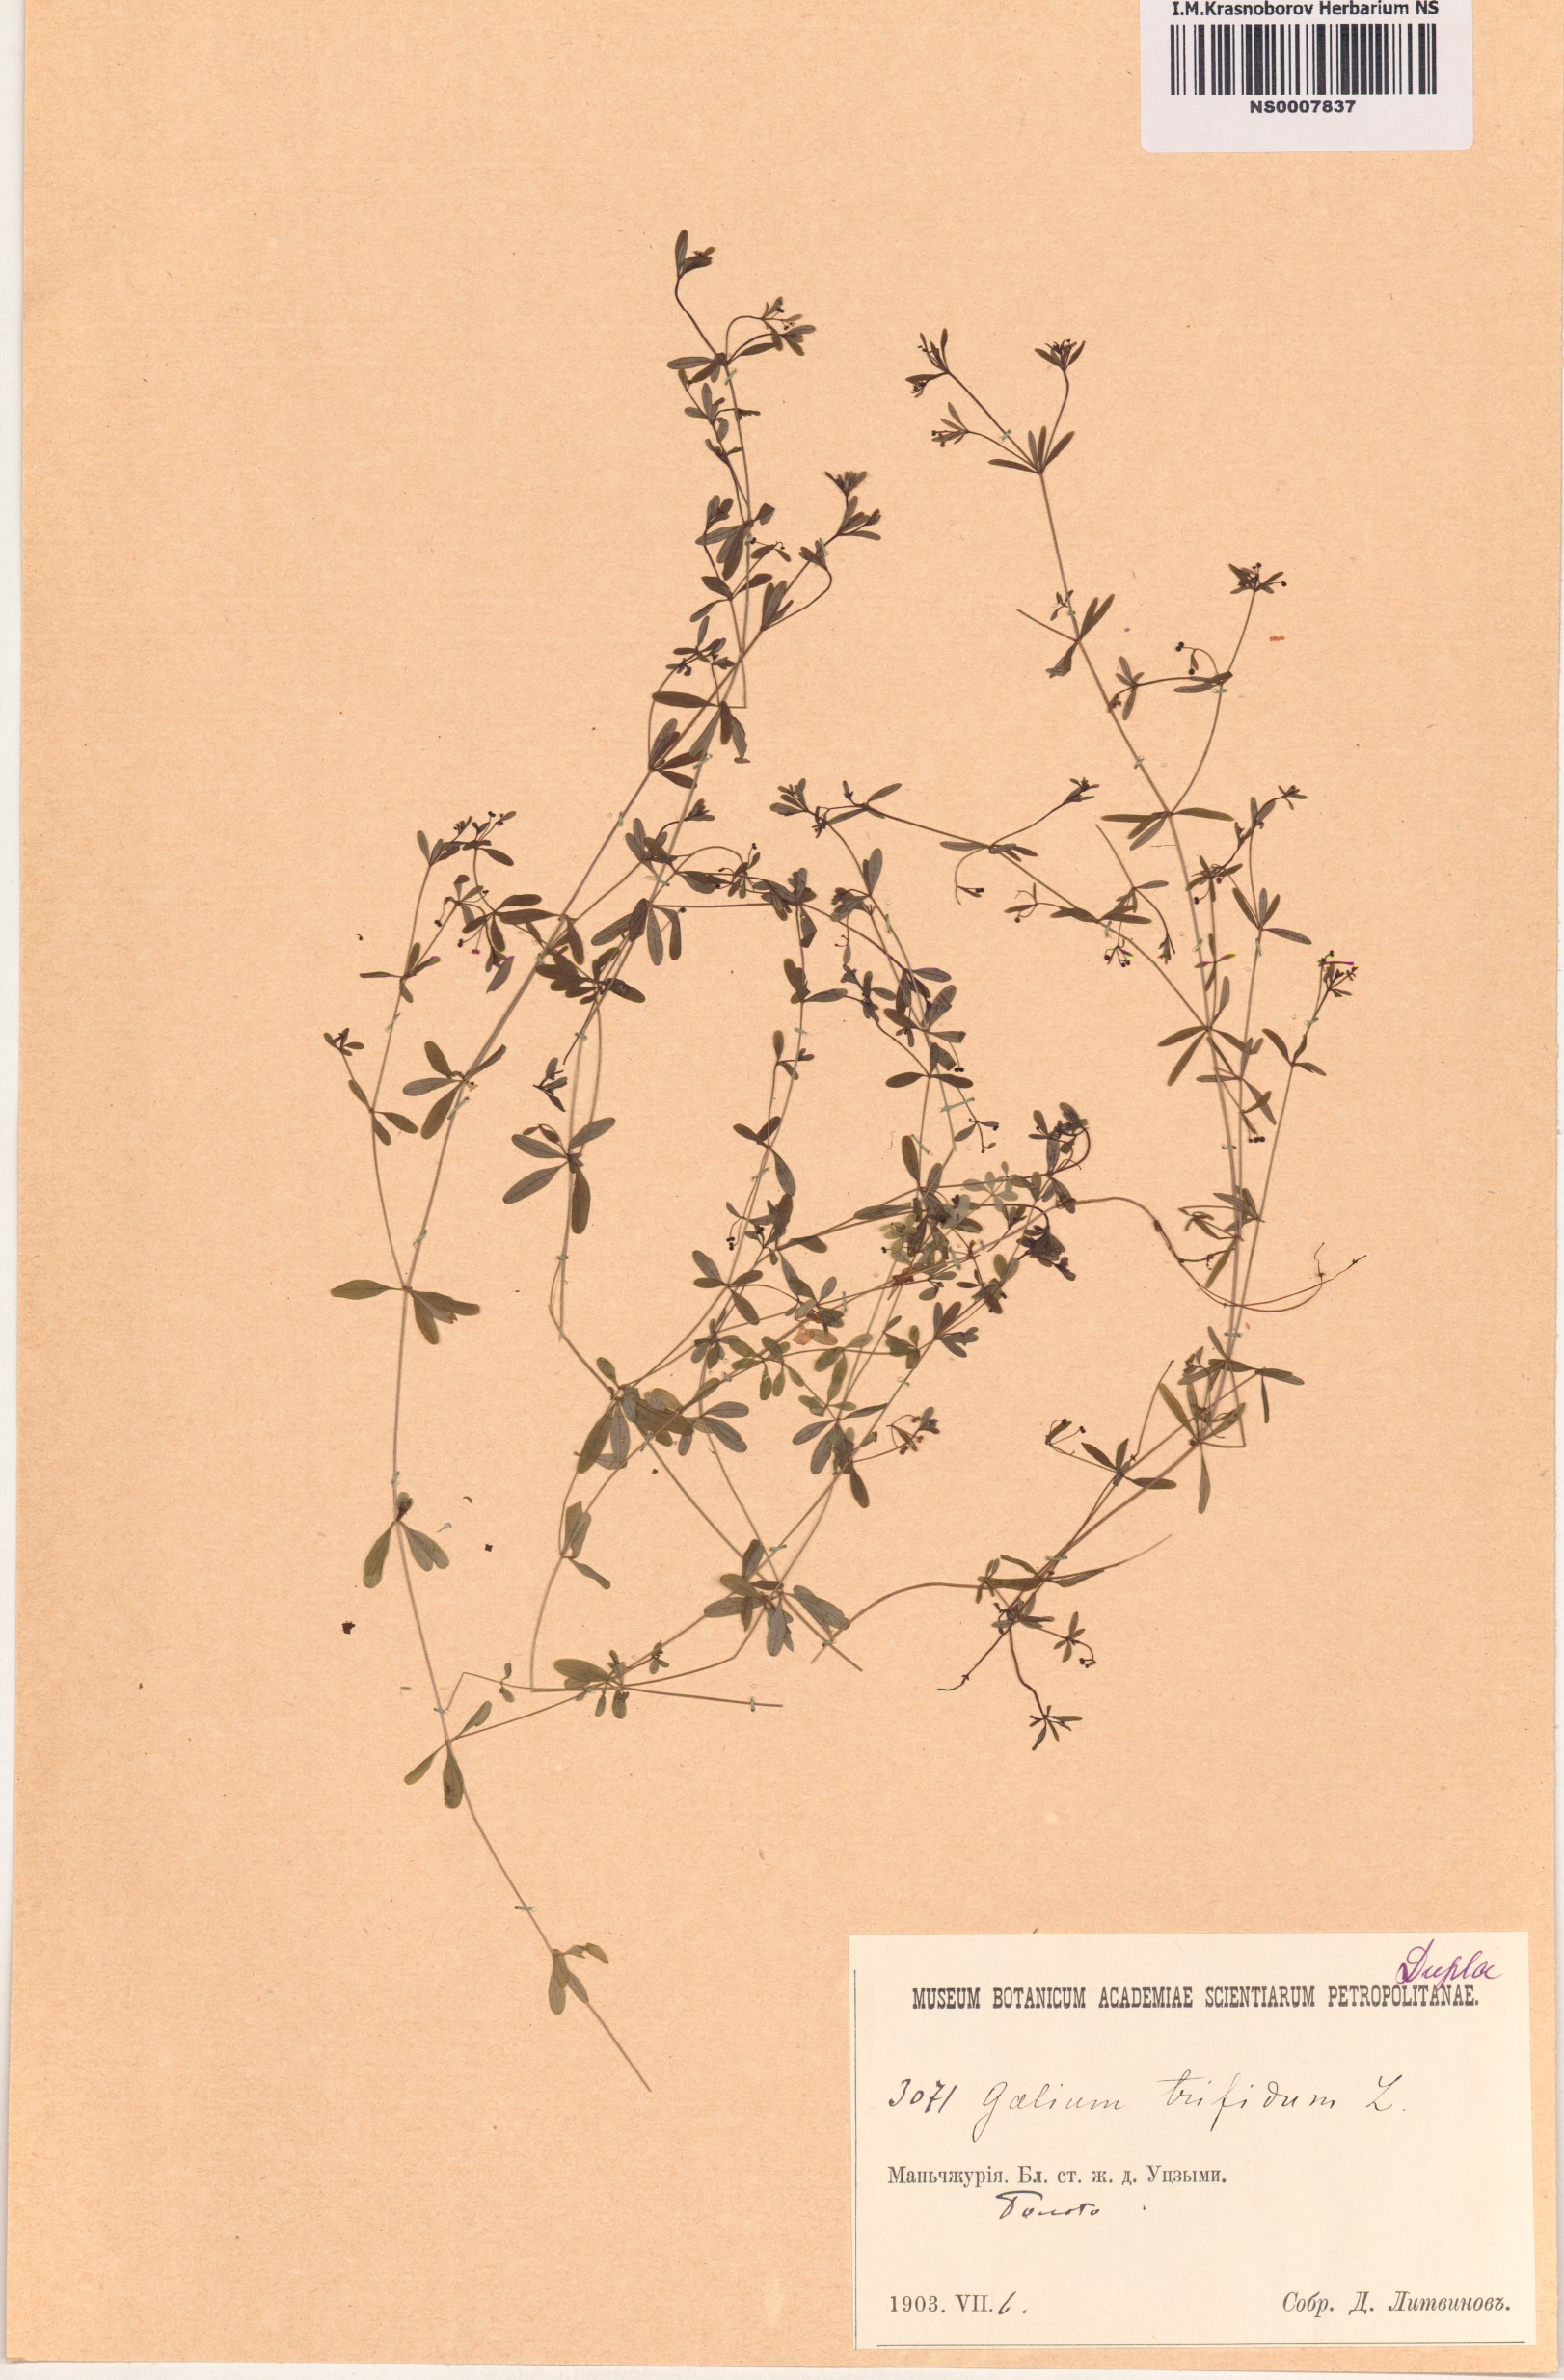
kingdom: Plantae
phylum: Tracheophyta
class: Magnoliopsida
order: Gentianales
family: Rubiaceae
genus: Galium
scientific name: Galium trifidum
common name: Small bedstraw
